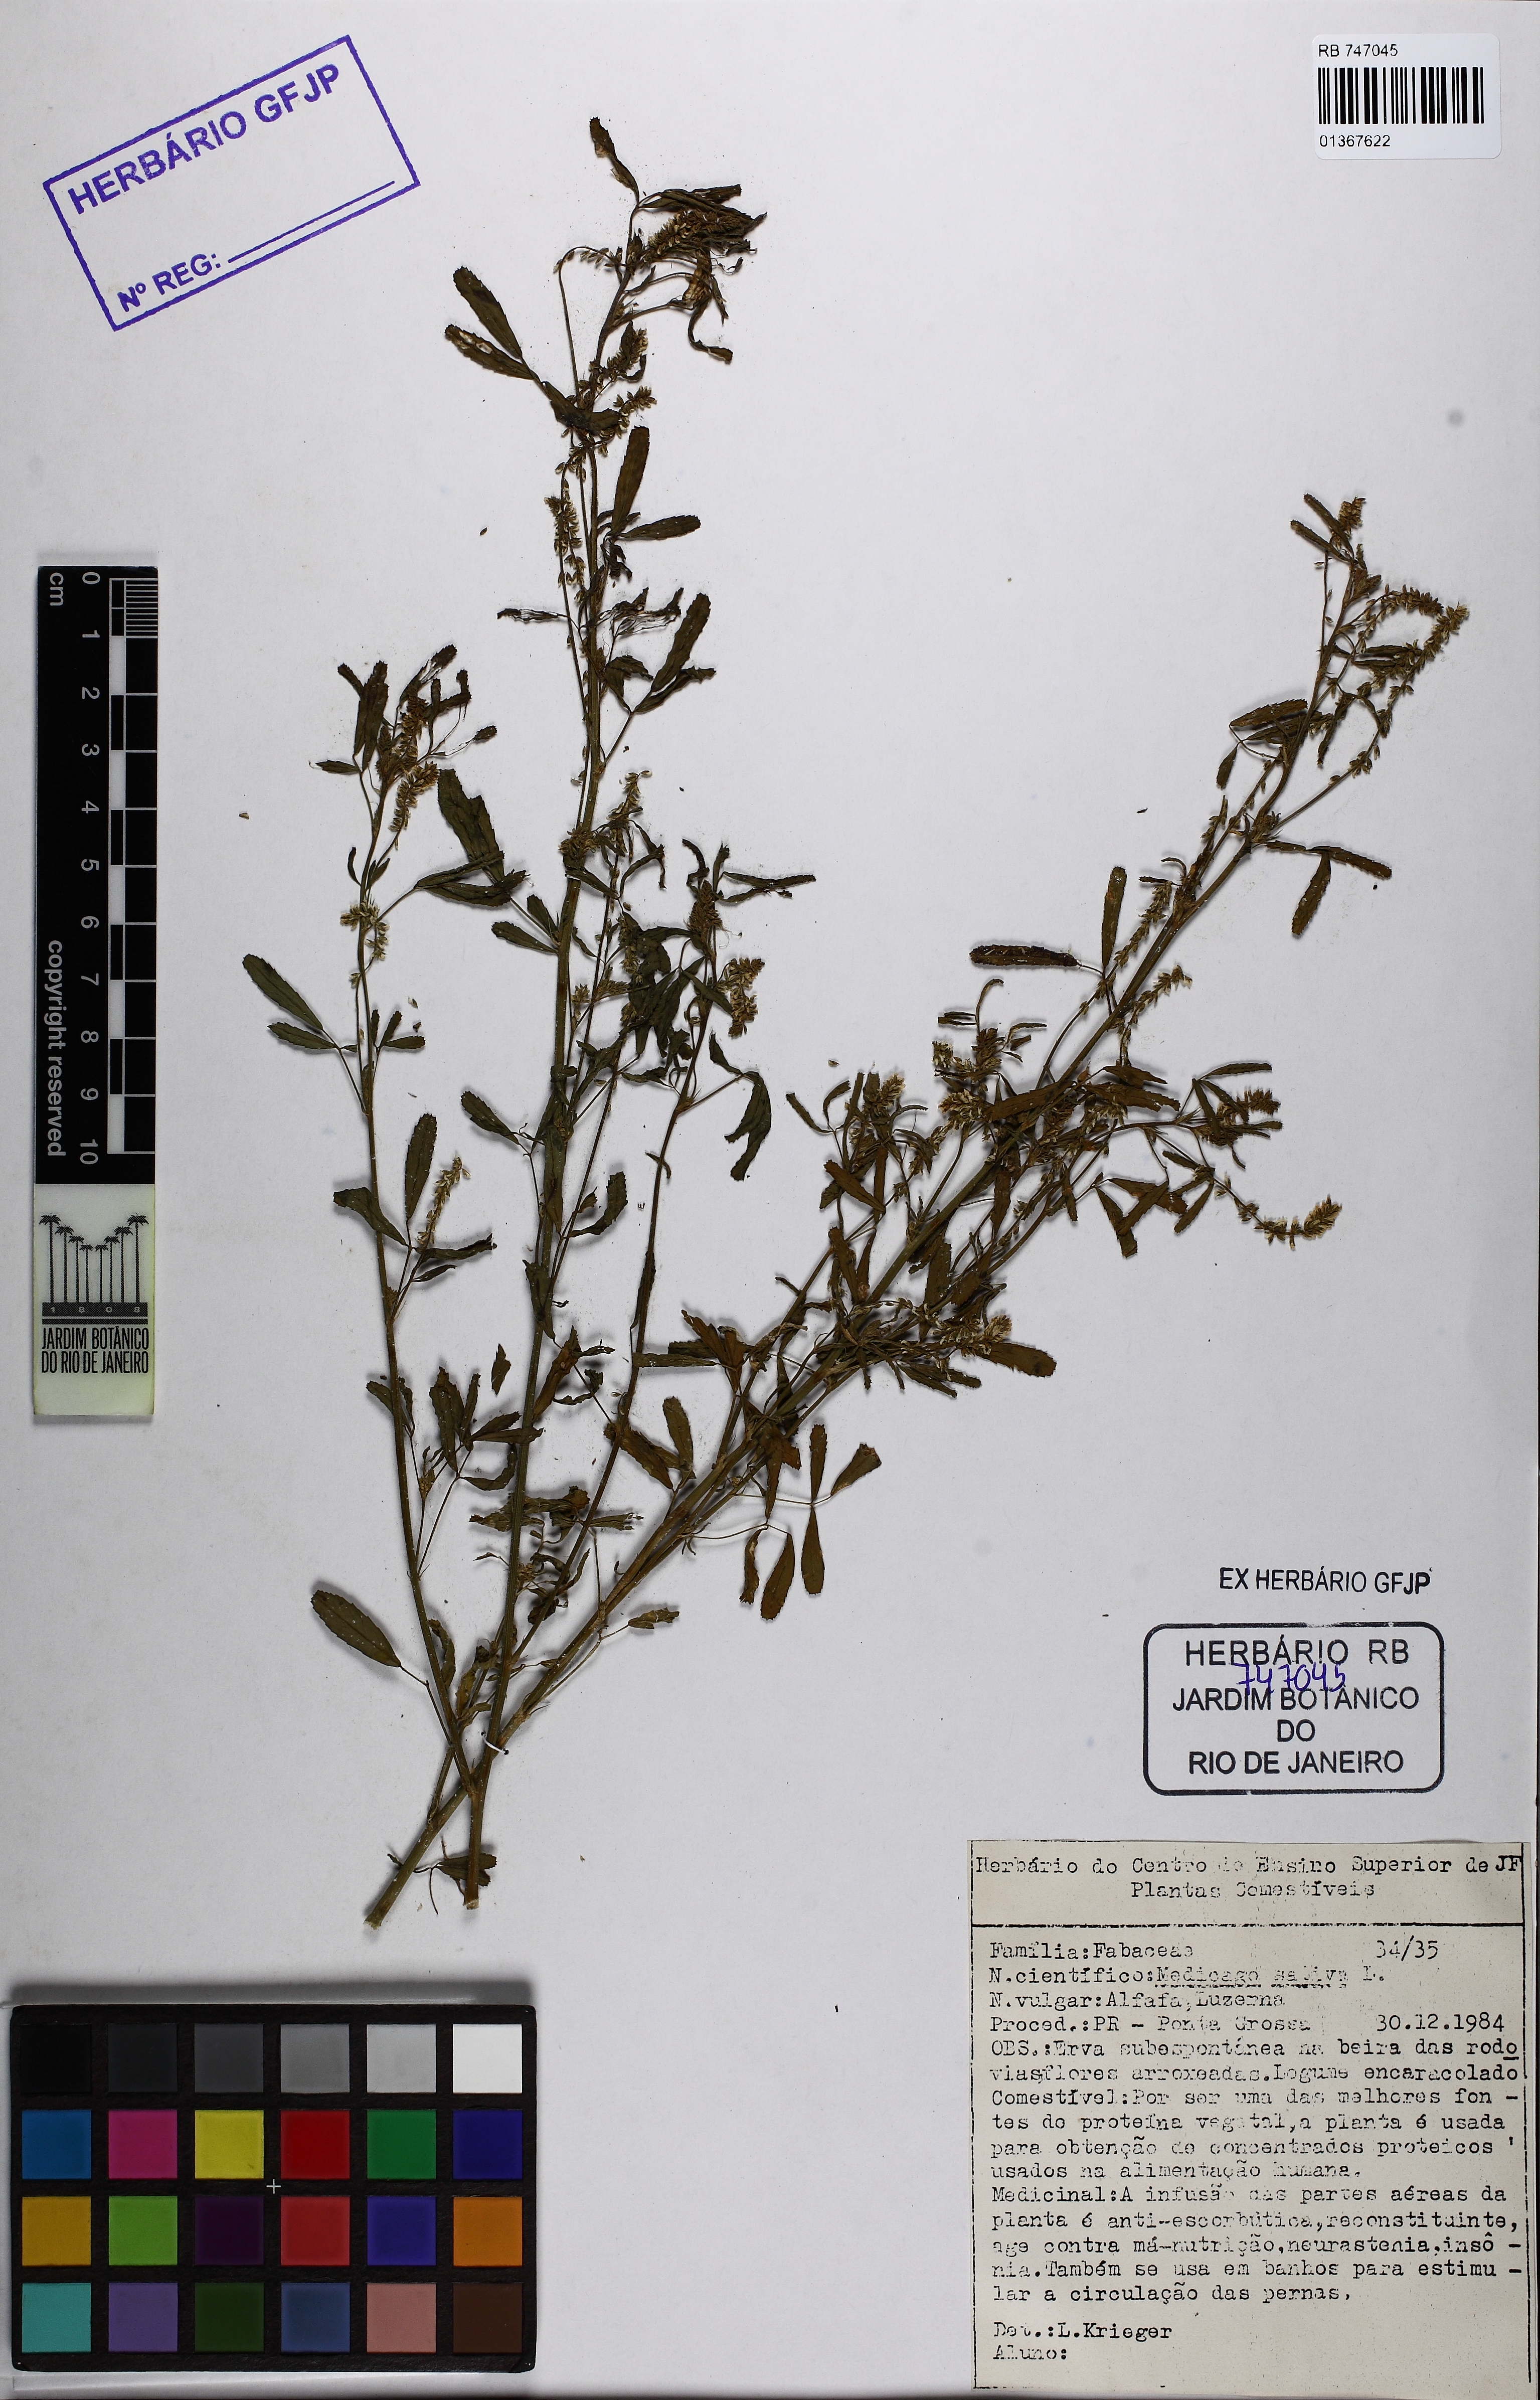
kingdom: Plantae
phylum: Tracheophyta
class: Magnoliopsida
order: Fabales
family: Fabaceae
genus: Medicago
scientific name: Medicago sativa
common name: Alfalfa
